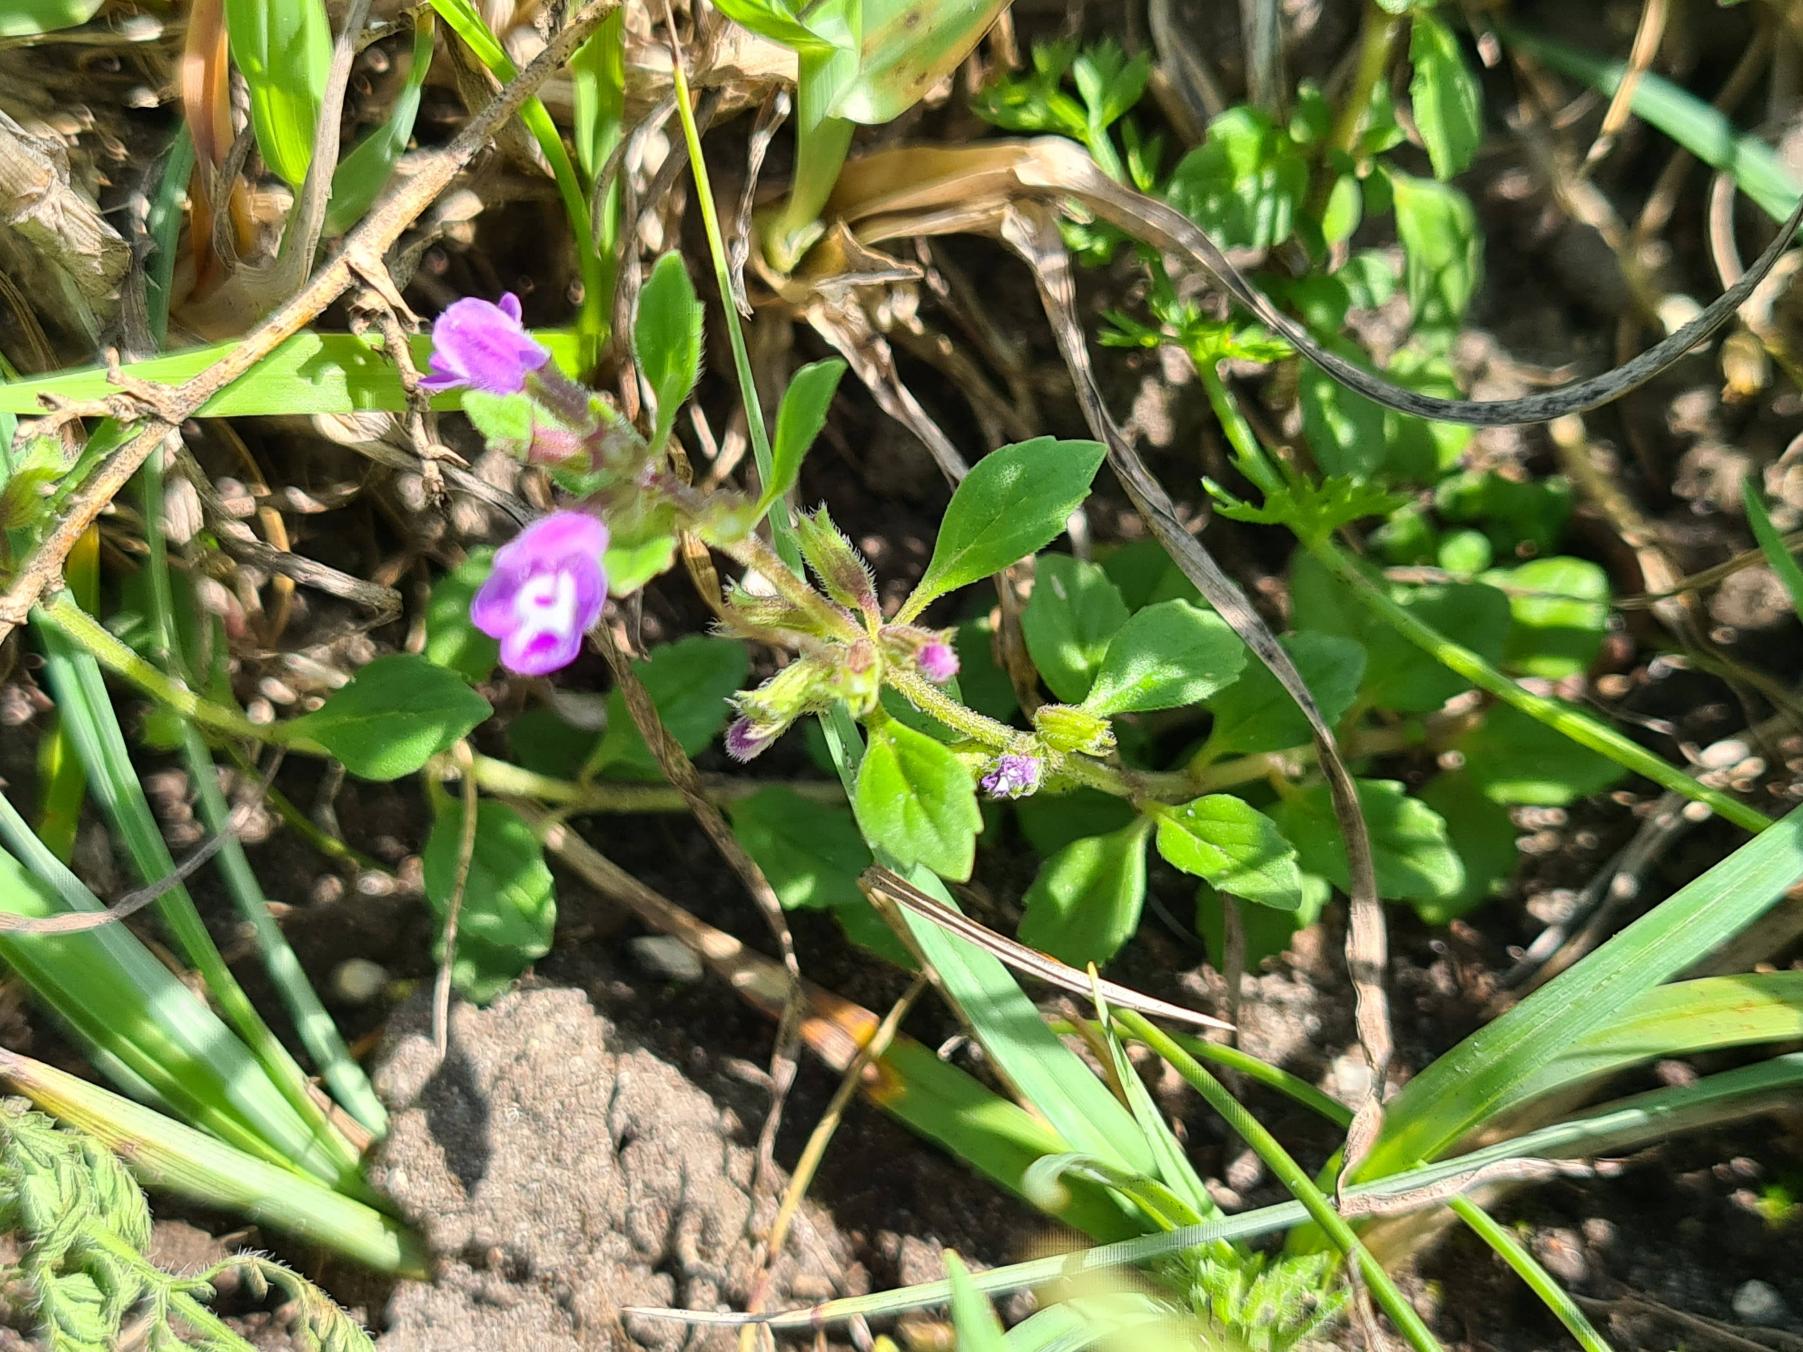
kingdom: Plantae
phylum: Tracheophyta
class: Magnoliopsida
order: Lamiales
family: Lamiaceae
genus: Clinopodium
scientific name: Clinopodium acinos
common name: Voldtimian
